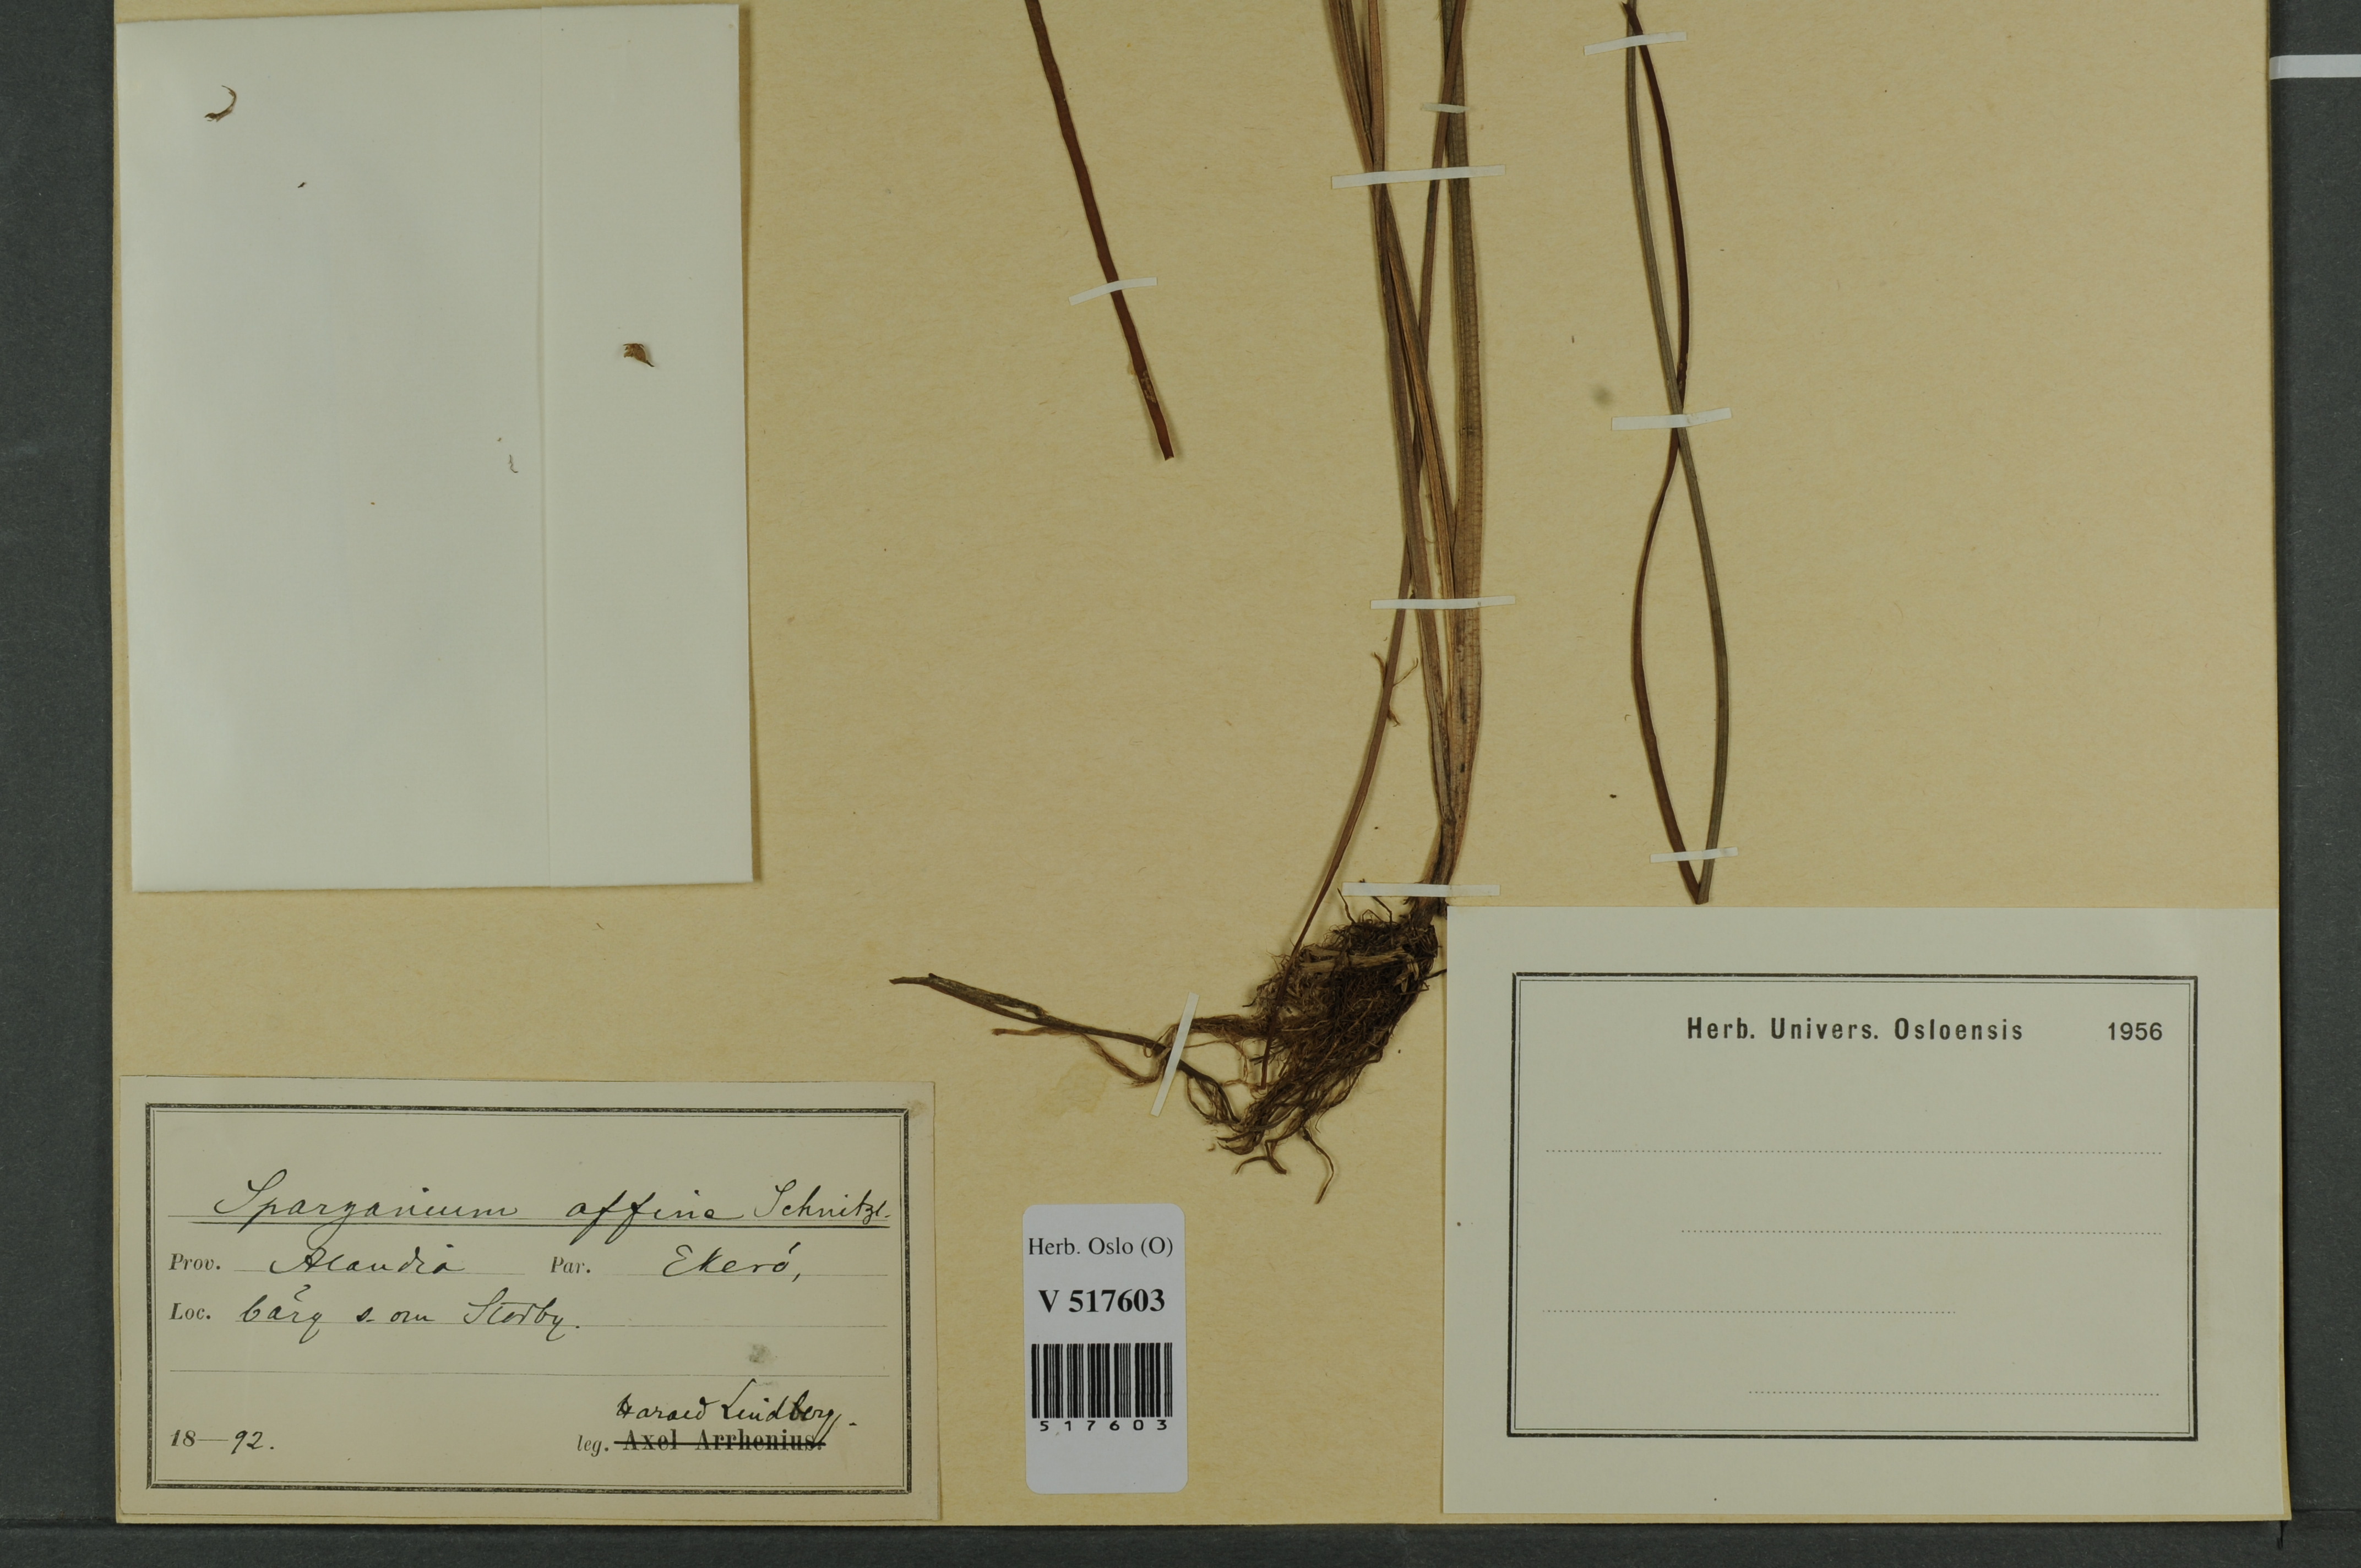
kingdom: Plantae
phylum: Tracheophyta
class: Liliopsida
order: Poales
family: Typhaceae
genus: Sparganium
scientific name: Sparganium angustifolium
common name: Floating bur-reed
